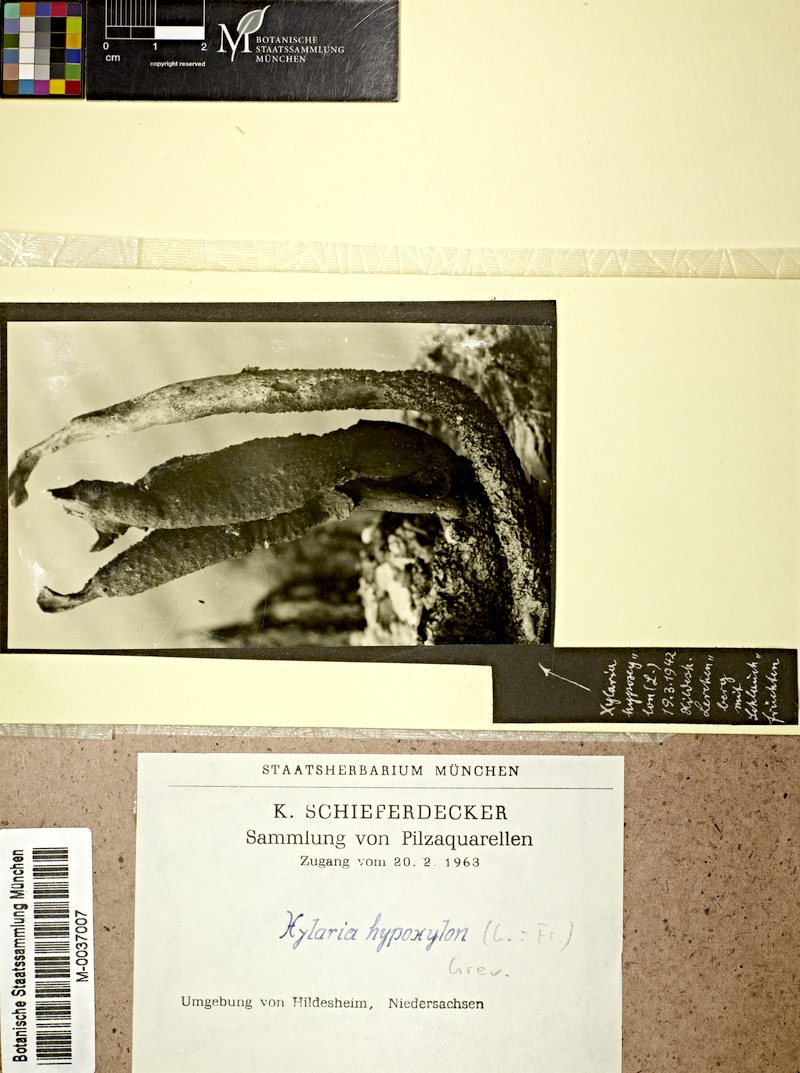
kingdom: Fungi
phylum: Ascomycota
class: Sordariomycetes
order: Xylariales
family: Xylariaceae
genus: Xylaria
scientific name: Xylaria hypoxylon
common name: Candle-snuff fungus
